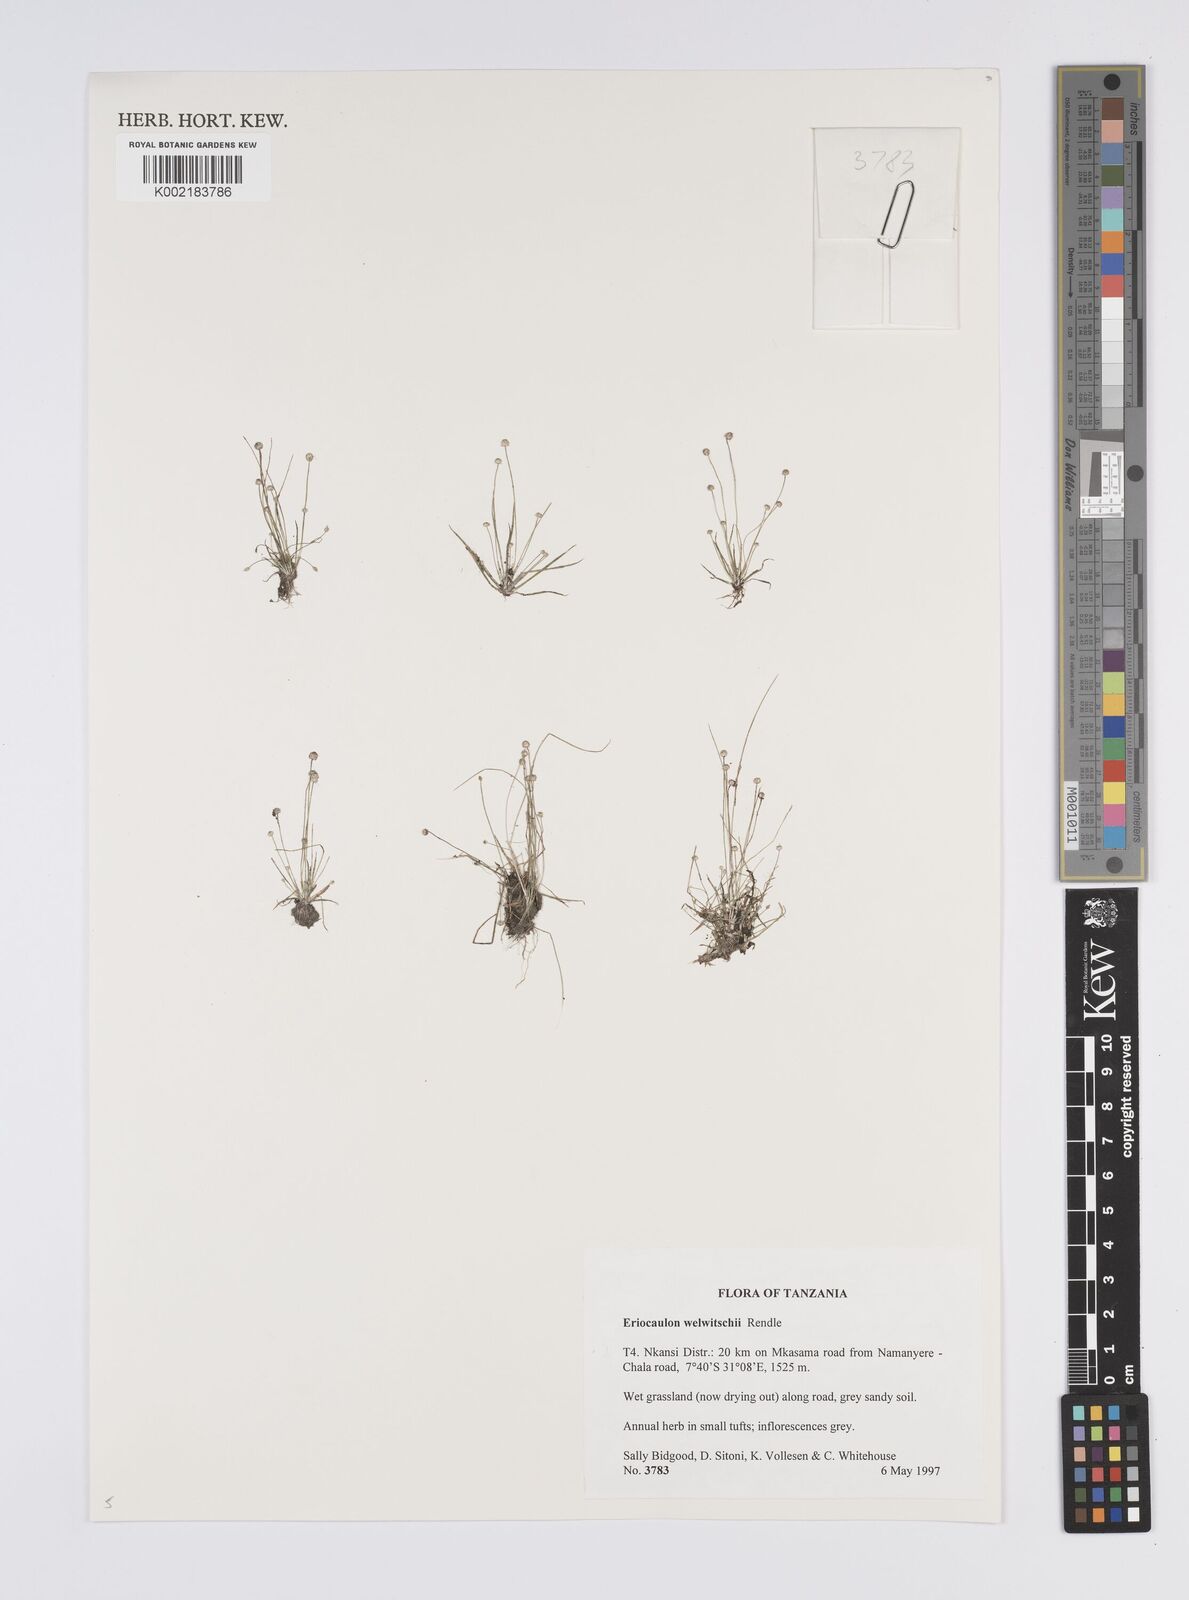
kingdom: Plantae
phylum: Tracheophyta
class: Liliopsida
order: Poales
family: Eriocaulaceae
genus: Eriocaulon
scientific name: Eriocaulon welwitschii
